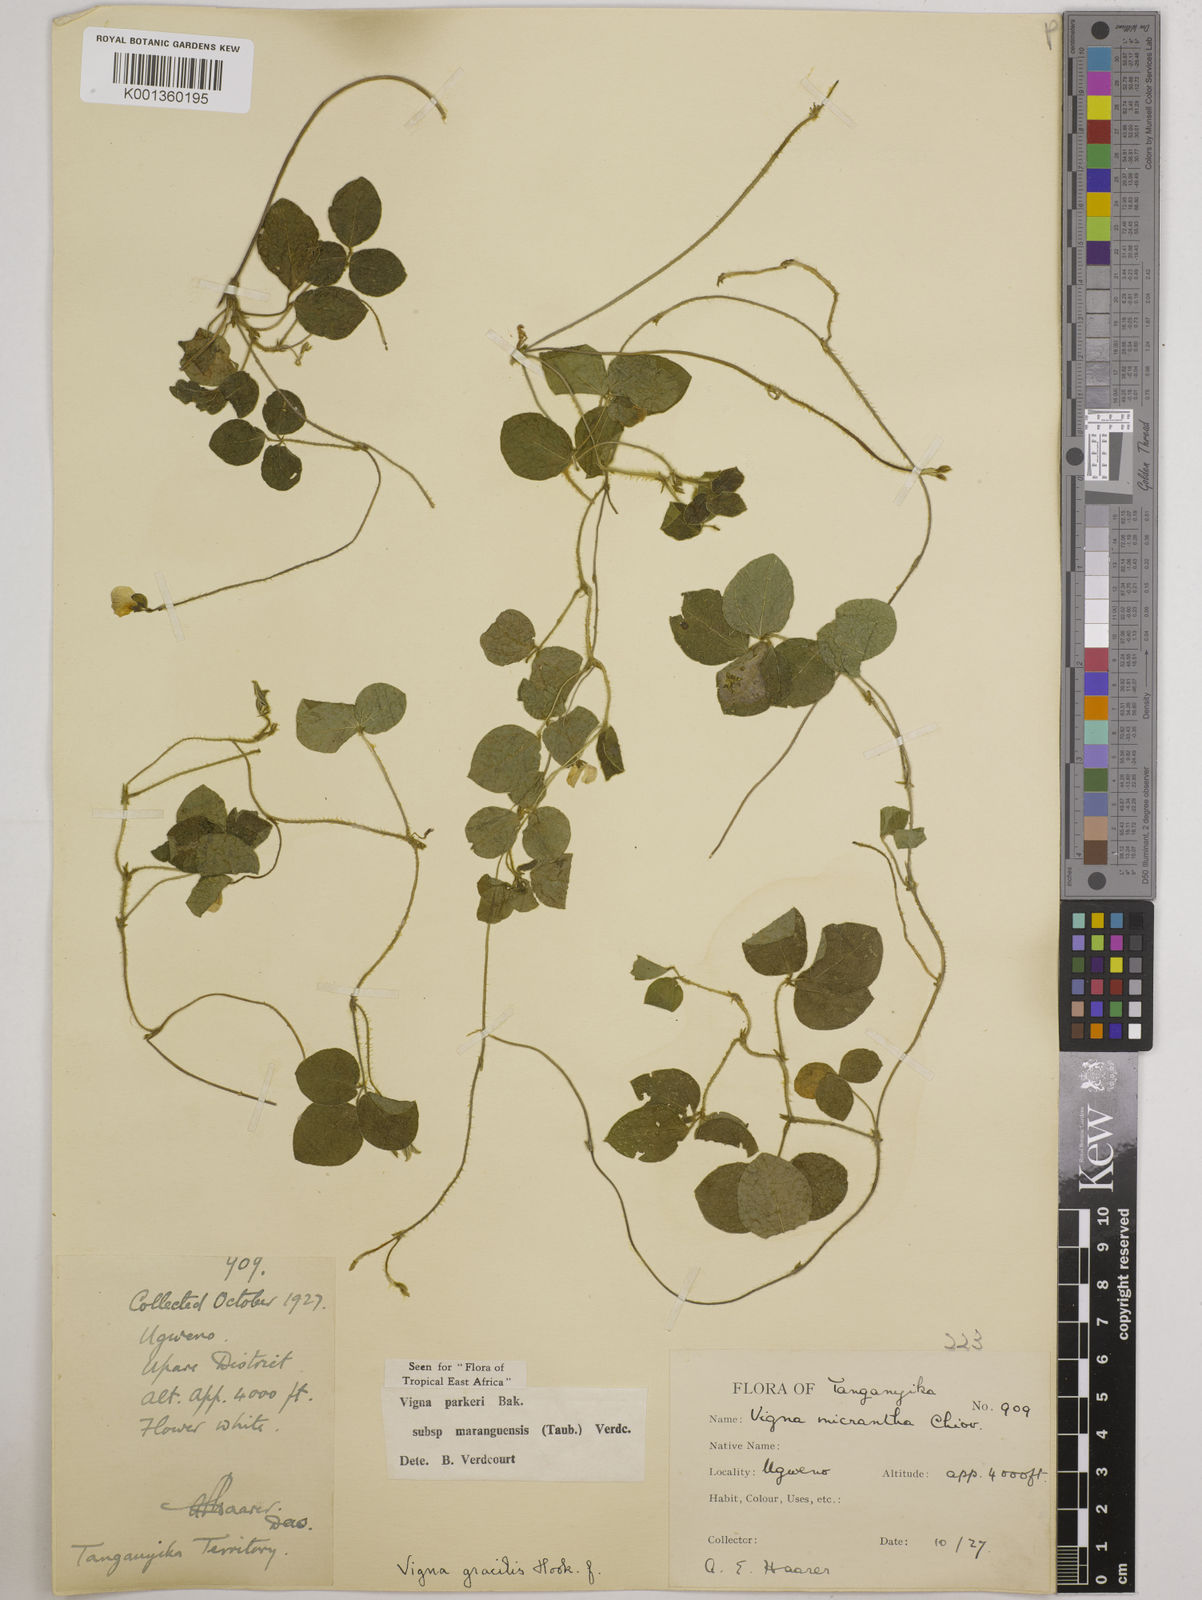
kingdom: Plantae
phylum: Tracheophyta
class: Magnoliopsida
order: Fabales
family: Fabaceae
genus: Vigna
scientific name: Vigna
